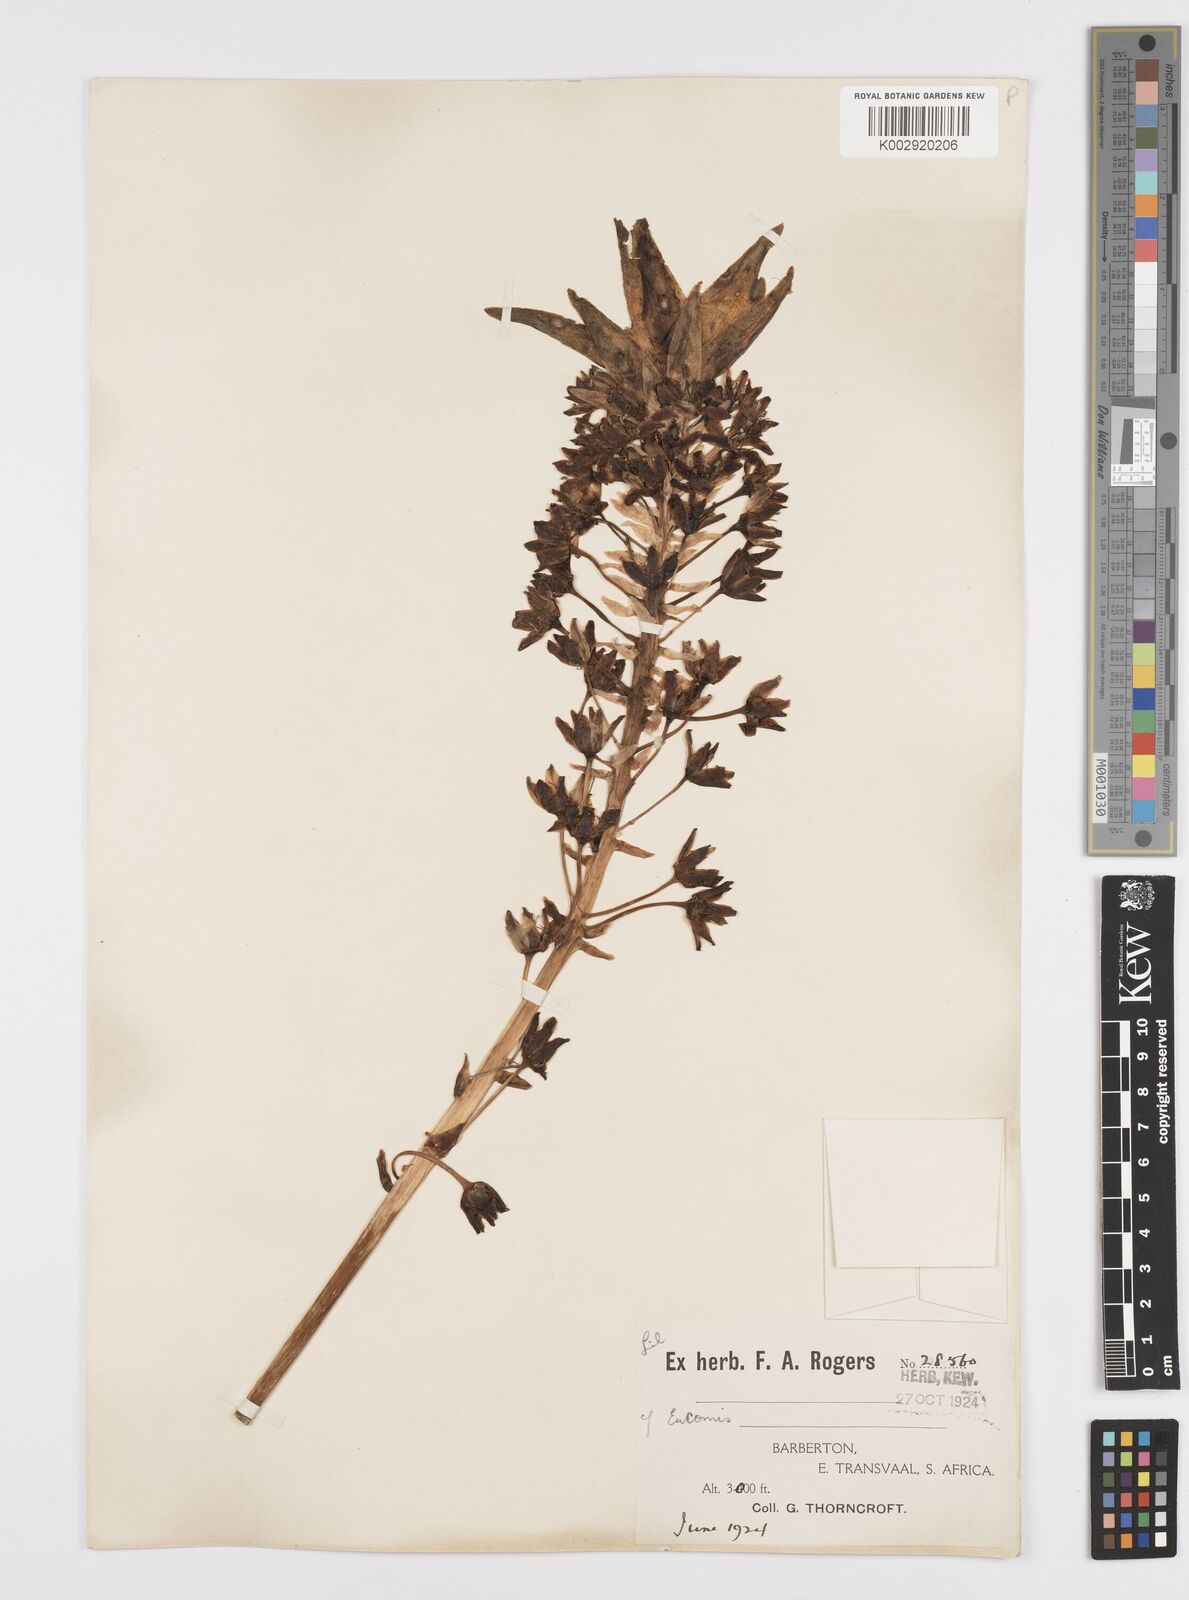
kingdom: Plantae
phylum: Tracheophyta
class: Liliopsida
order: Asparagales
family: Asparagaceae
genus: Eucomis
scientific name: Eucomis
